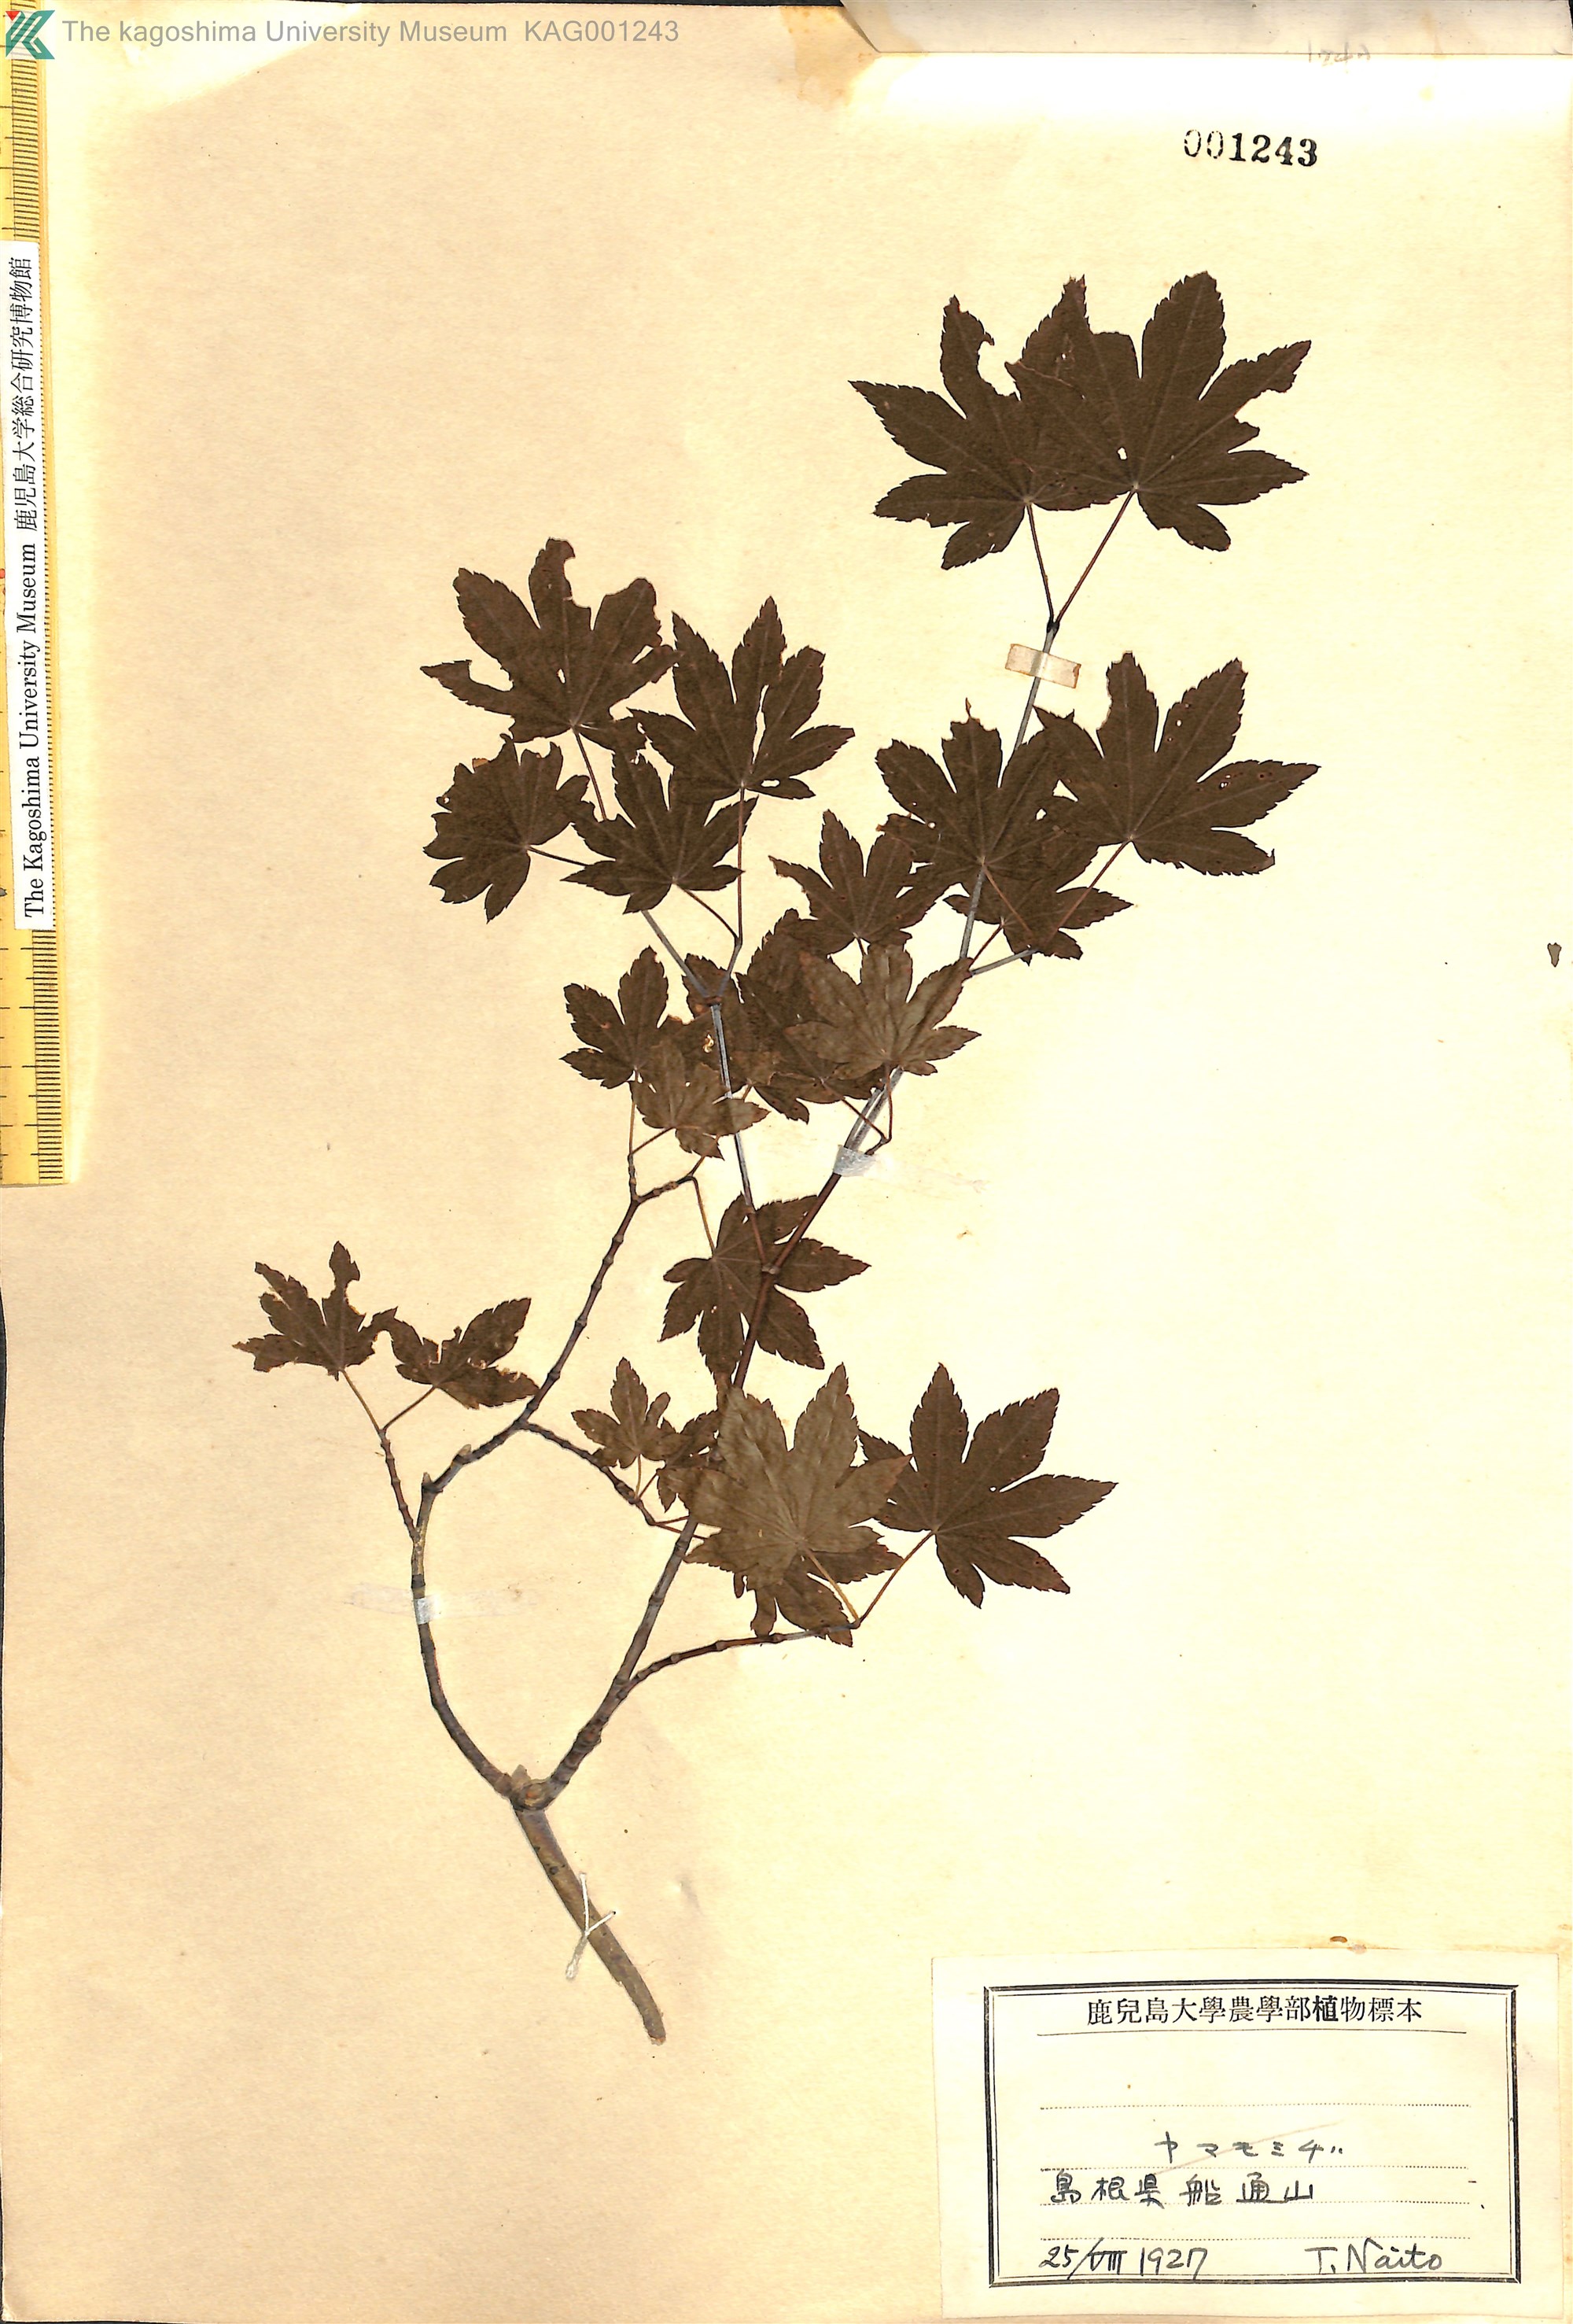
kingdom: Plantae
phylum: Tracheophyta
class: Magnoliopsida
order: Sapindales
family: Sapindaceae
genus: Acer
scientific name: Acer sieboldianum
